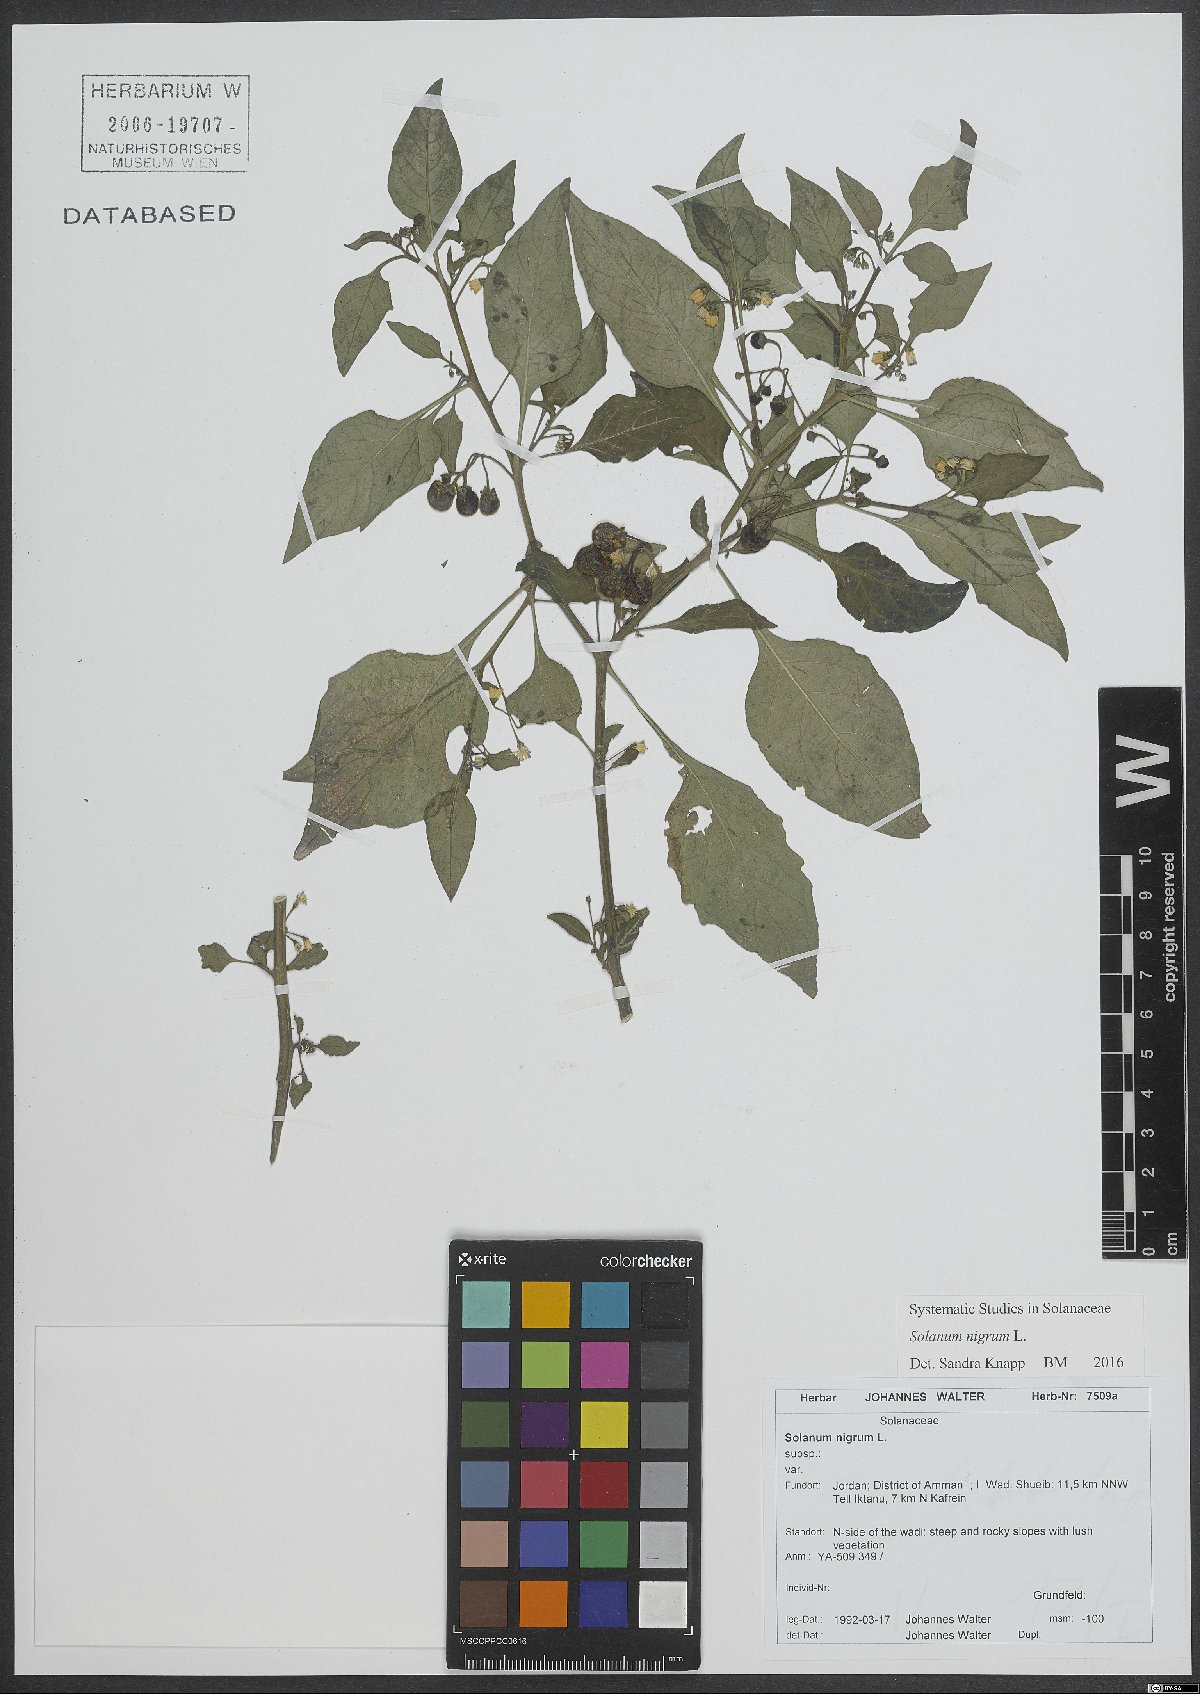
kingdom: Plantae
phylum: Tracheophyta
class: Magnoliopsida
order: Solanales
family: Solanaceae
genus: Solanum
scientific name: Solanum nigrum
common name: Black nightshade
